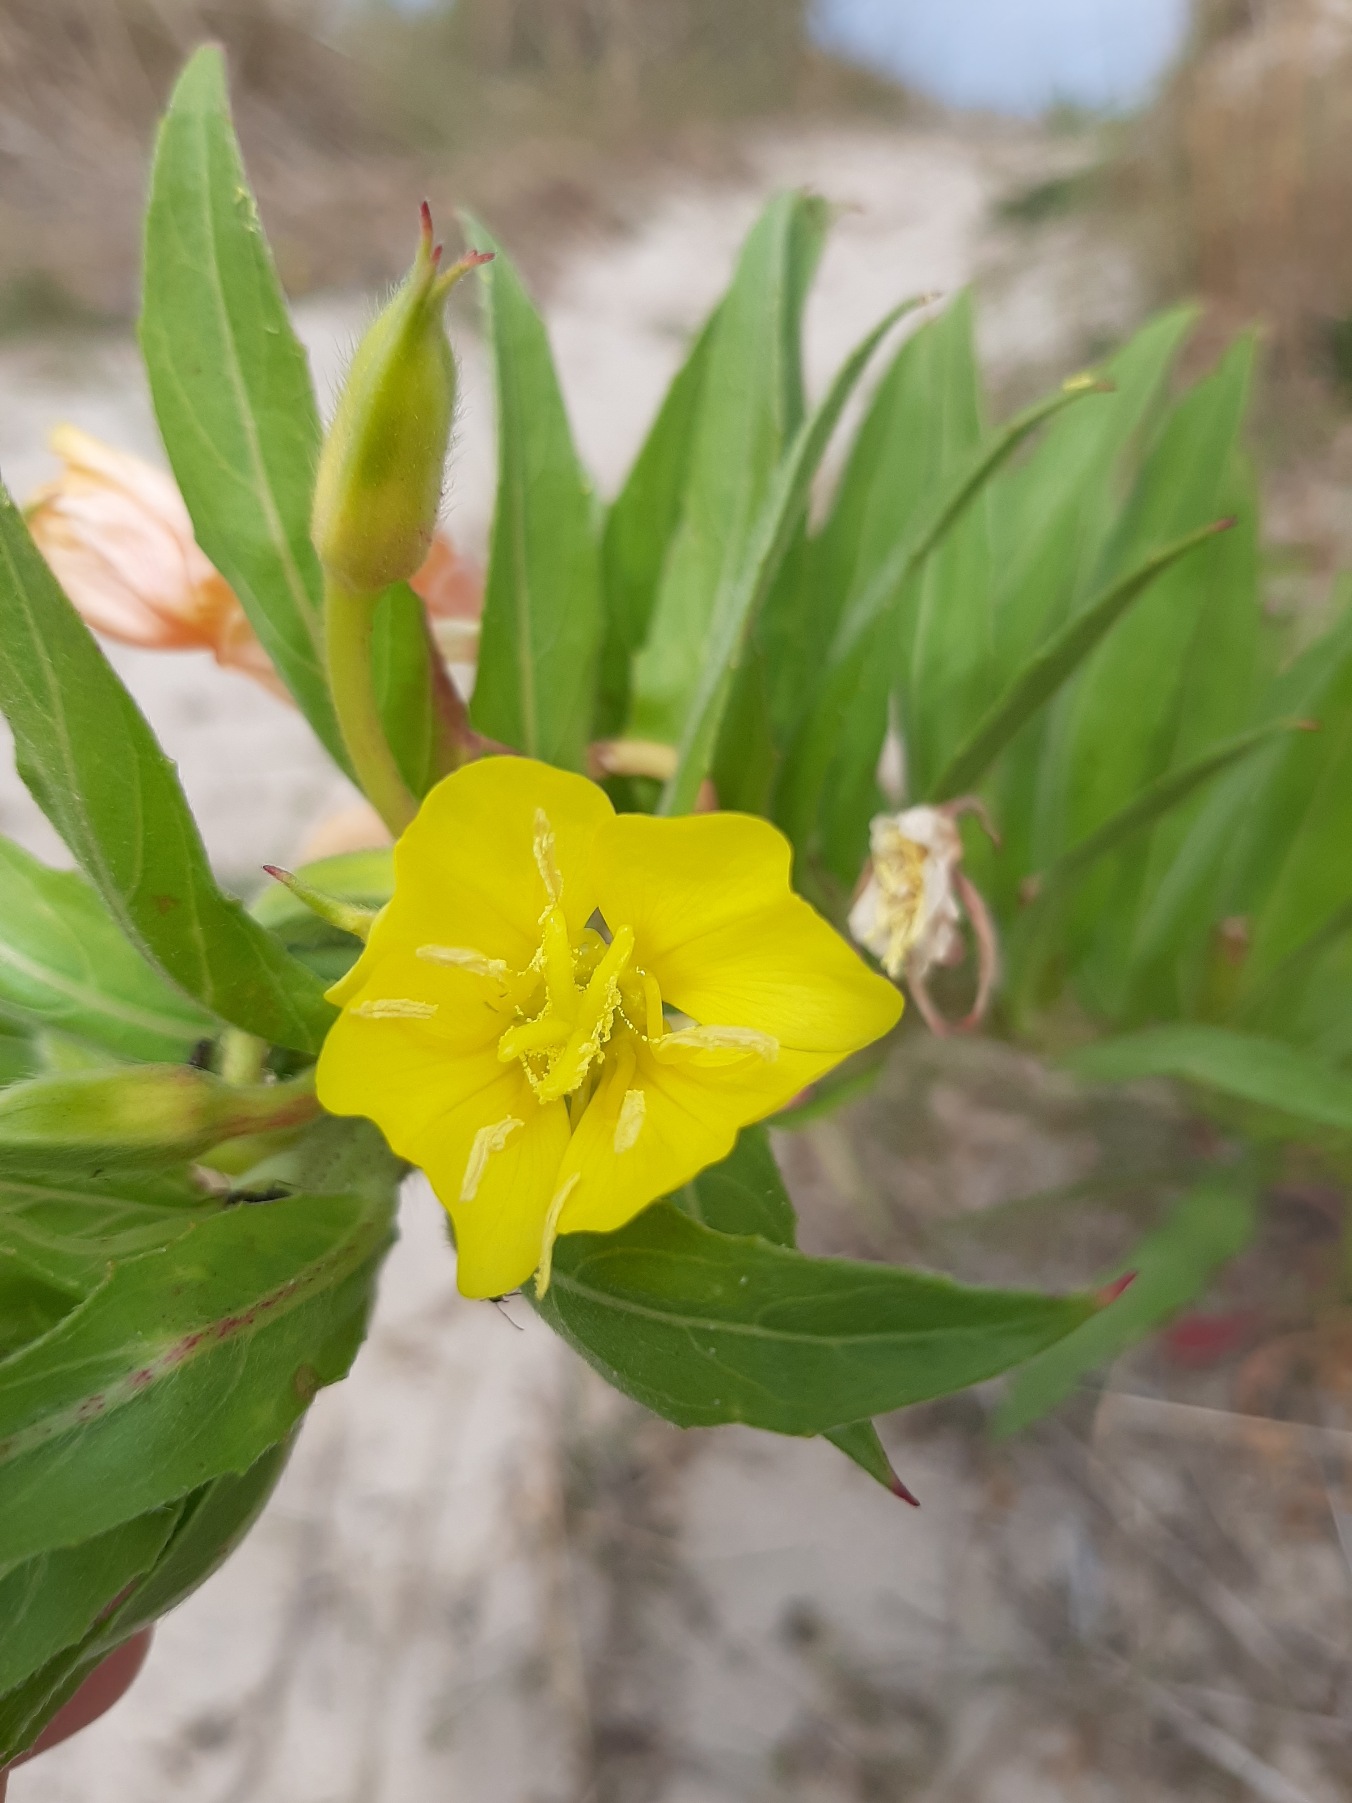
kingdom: Plantae
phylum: Tracheophyta
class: Magnoliopsida
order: Myrtales
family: Onagraceae
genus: Oenothera
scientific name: Oenothera ammophila
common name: Klit-natlys
